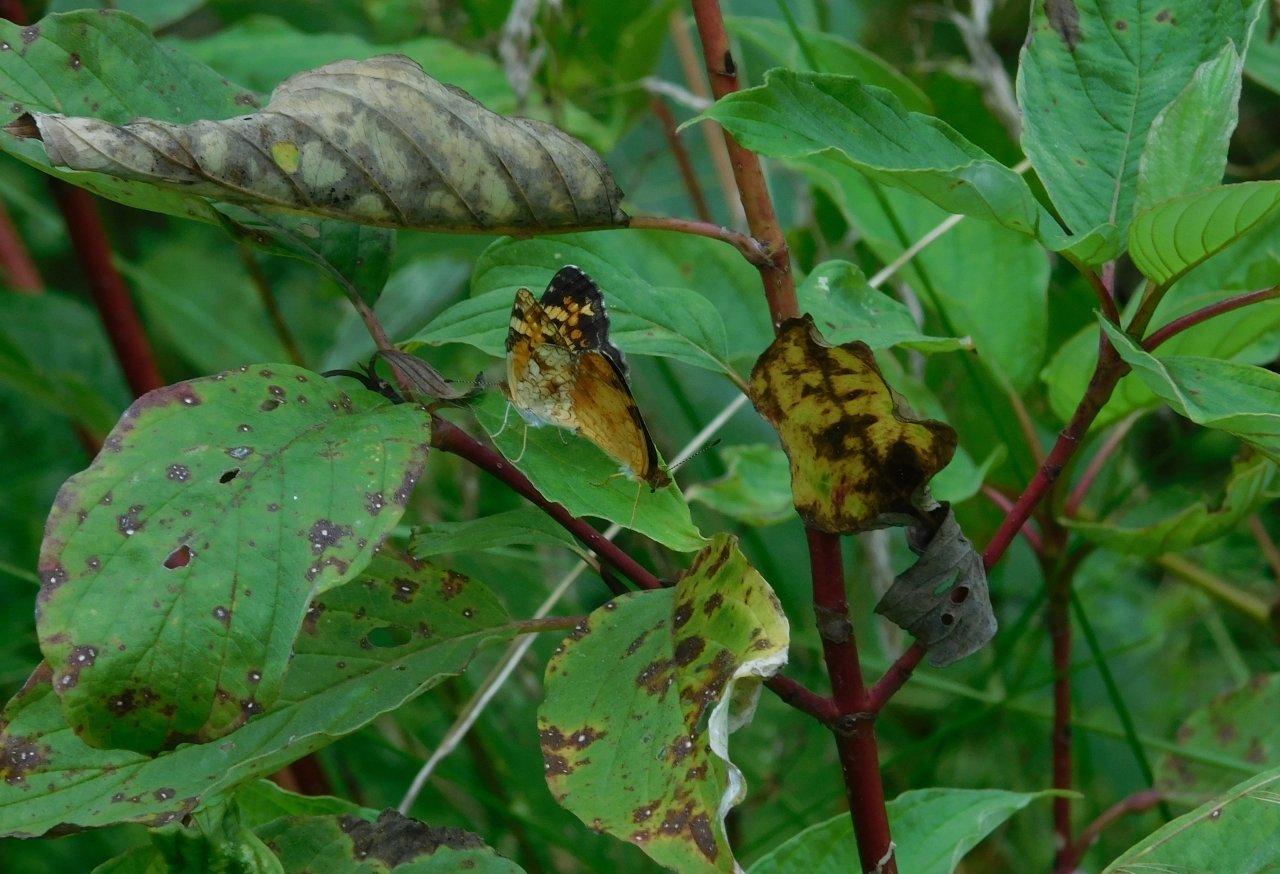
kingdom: Animalia
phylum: Arthropoda
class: Insecta
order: Lepidoptera
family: Nymphalidae
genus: Phyciodes
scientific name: Phyciodes tharos
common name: Pearl Crescent
